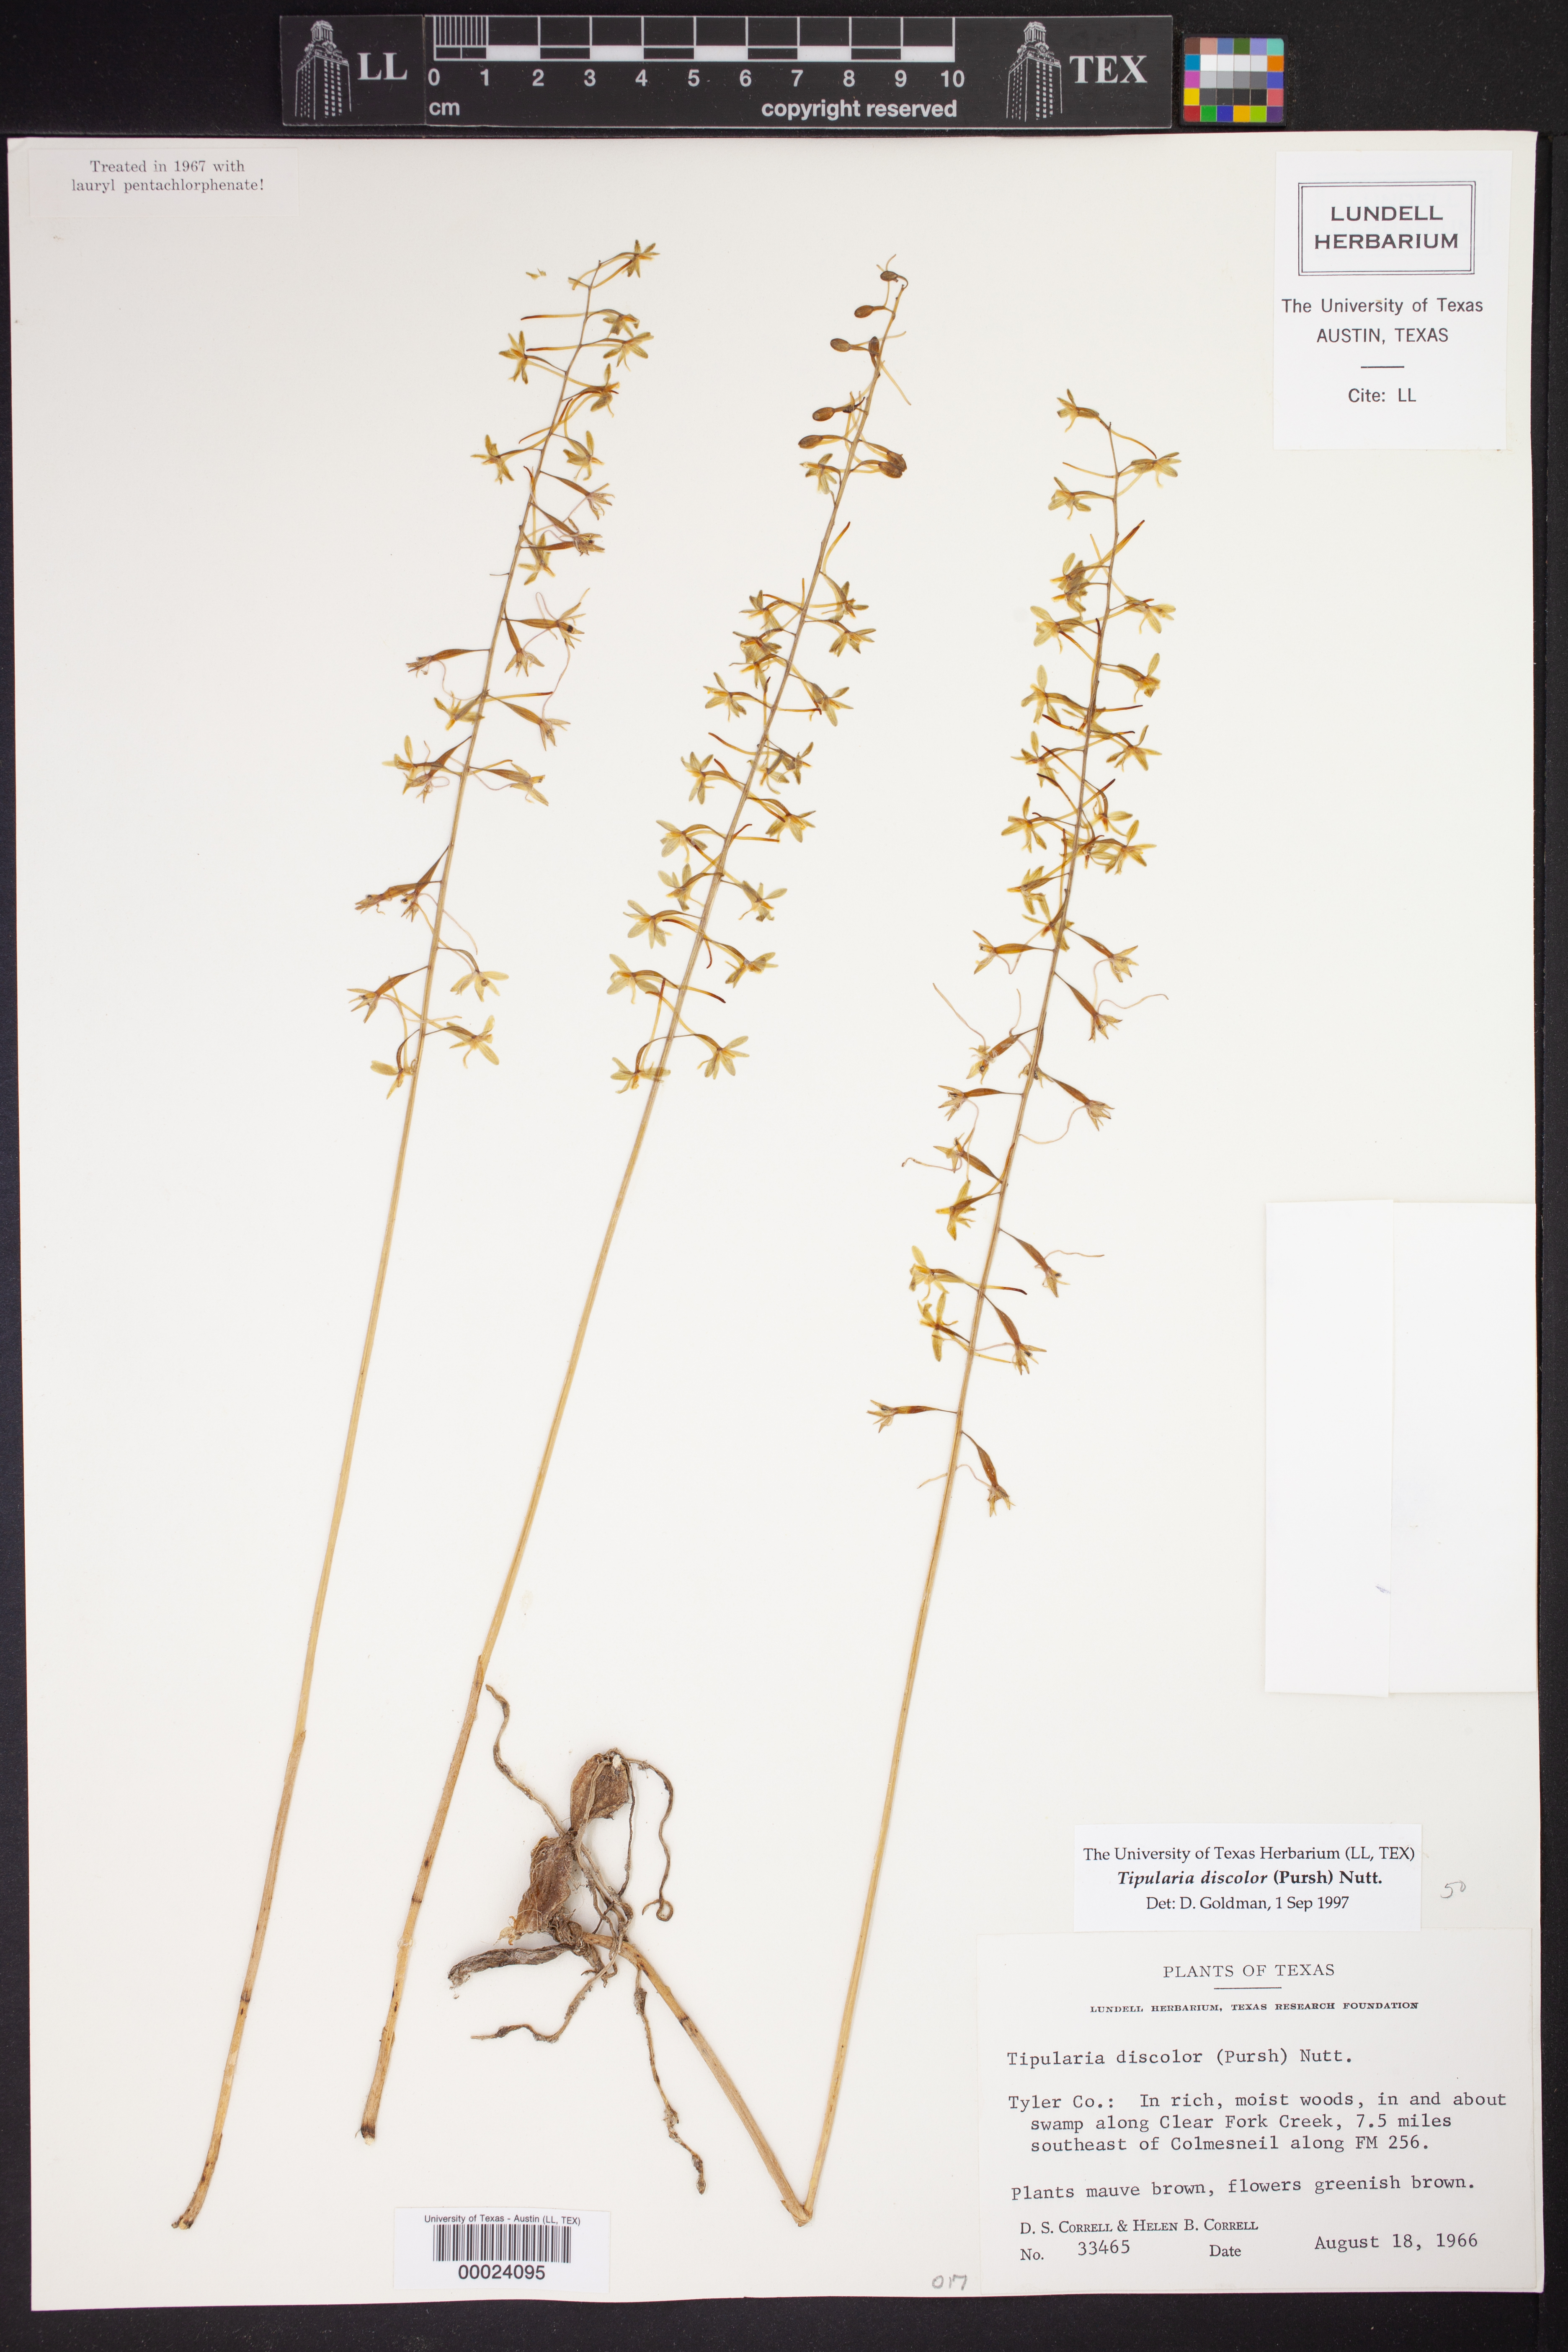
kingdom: Plantae
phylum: Tracheophyta
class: Liliopsida
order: Asparagales
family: Orchidaceae
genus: Tipularia
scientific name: Tipularia discolor
